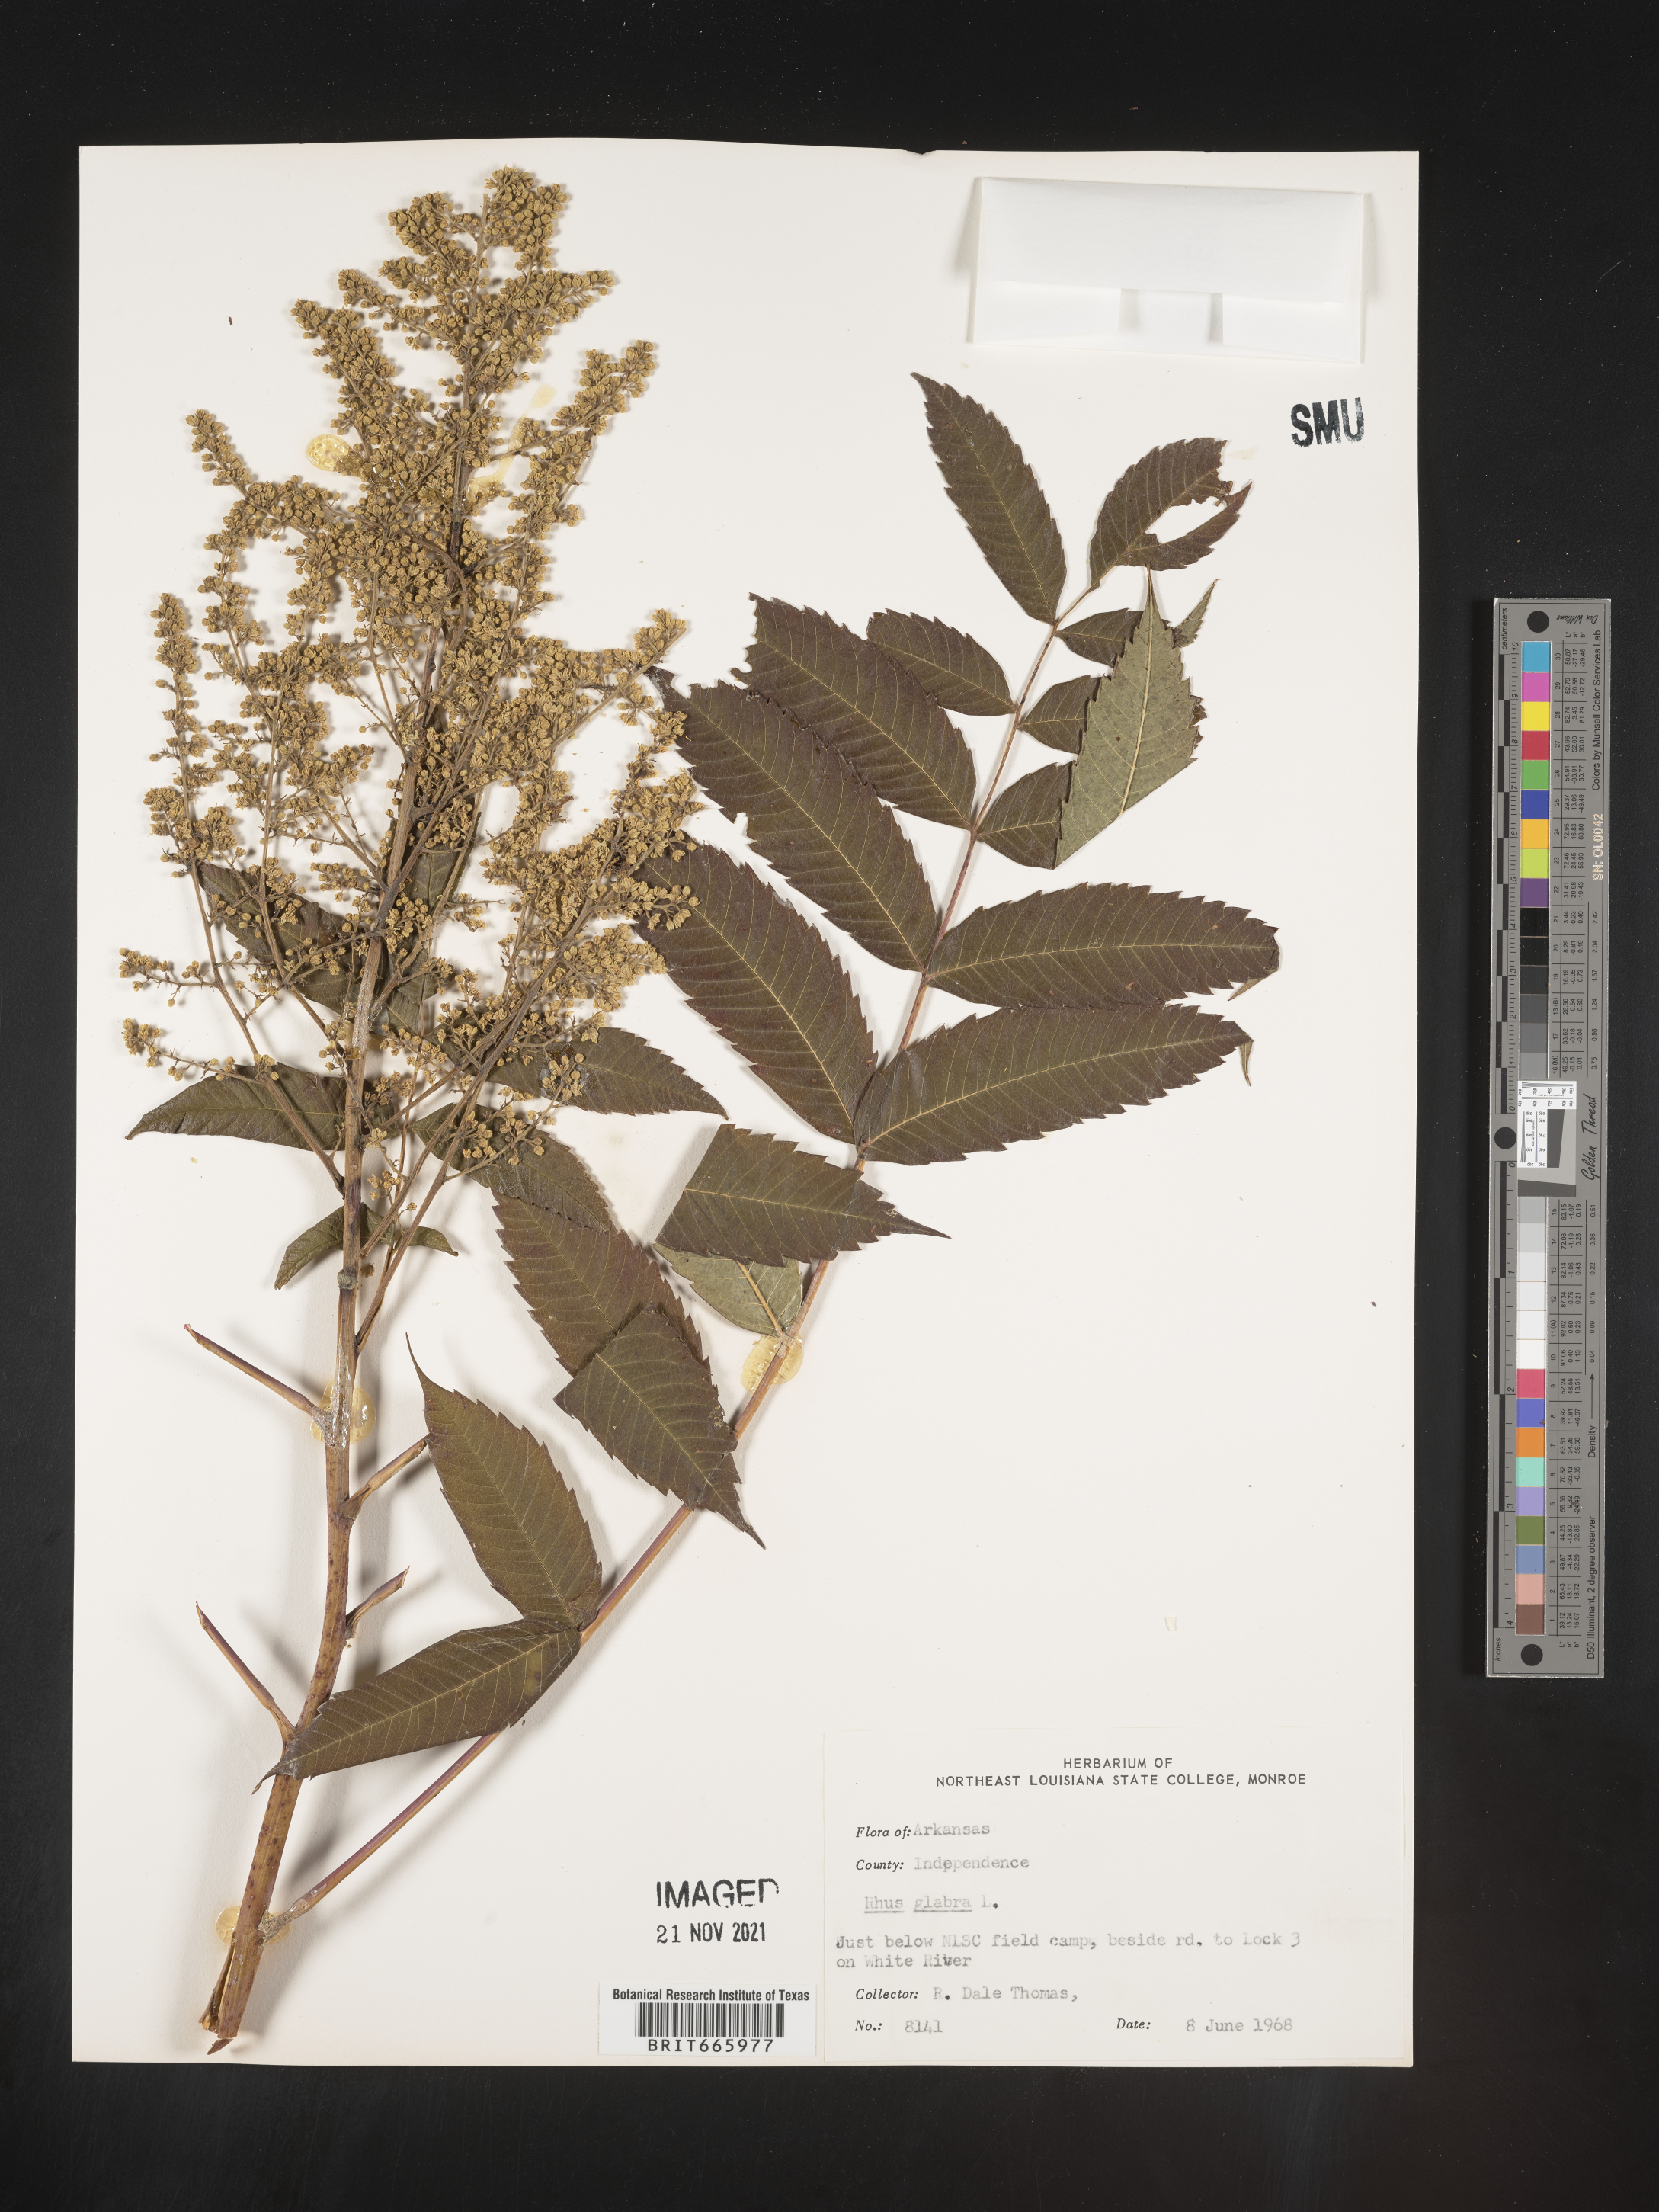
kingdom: Plantae
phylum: Tracheophyta
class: Magnoliopsida
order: Sapindales
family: Anacardiaceae
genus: Rhus
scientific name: Rhus glabra
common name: Scarlet sumac
